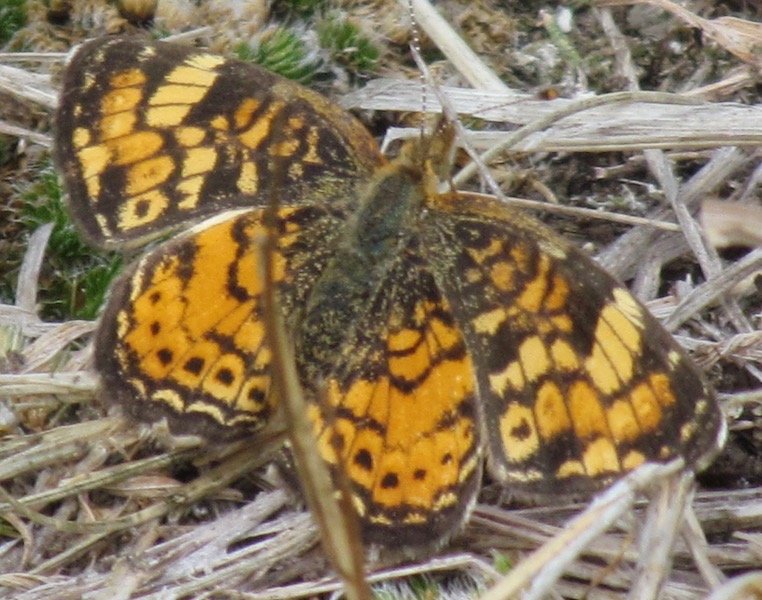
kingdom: Animalia
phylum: Arthropoda
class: Insecta
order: Lepidoptera
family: Nymphalidae
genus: Phyciodes
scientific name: Phyciodes tharos
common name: Pearl Crescent
